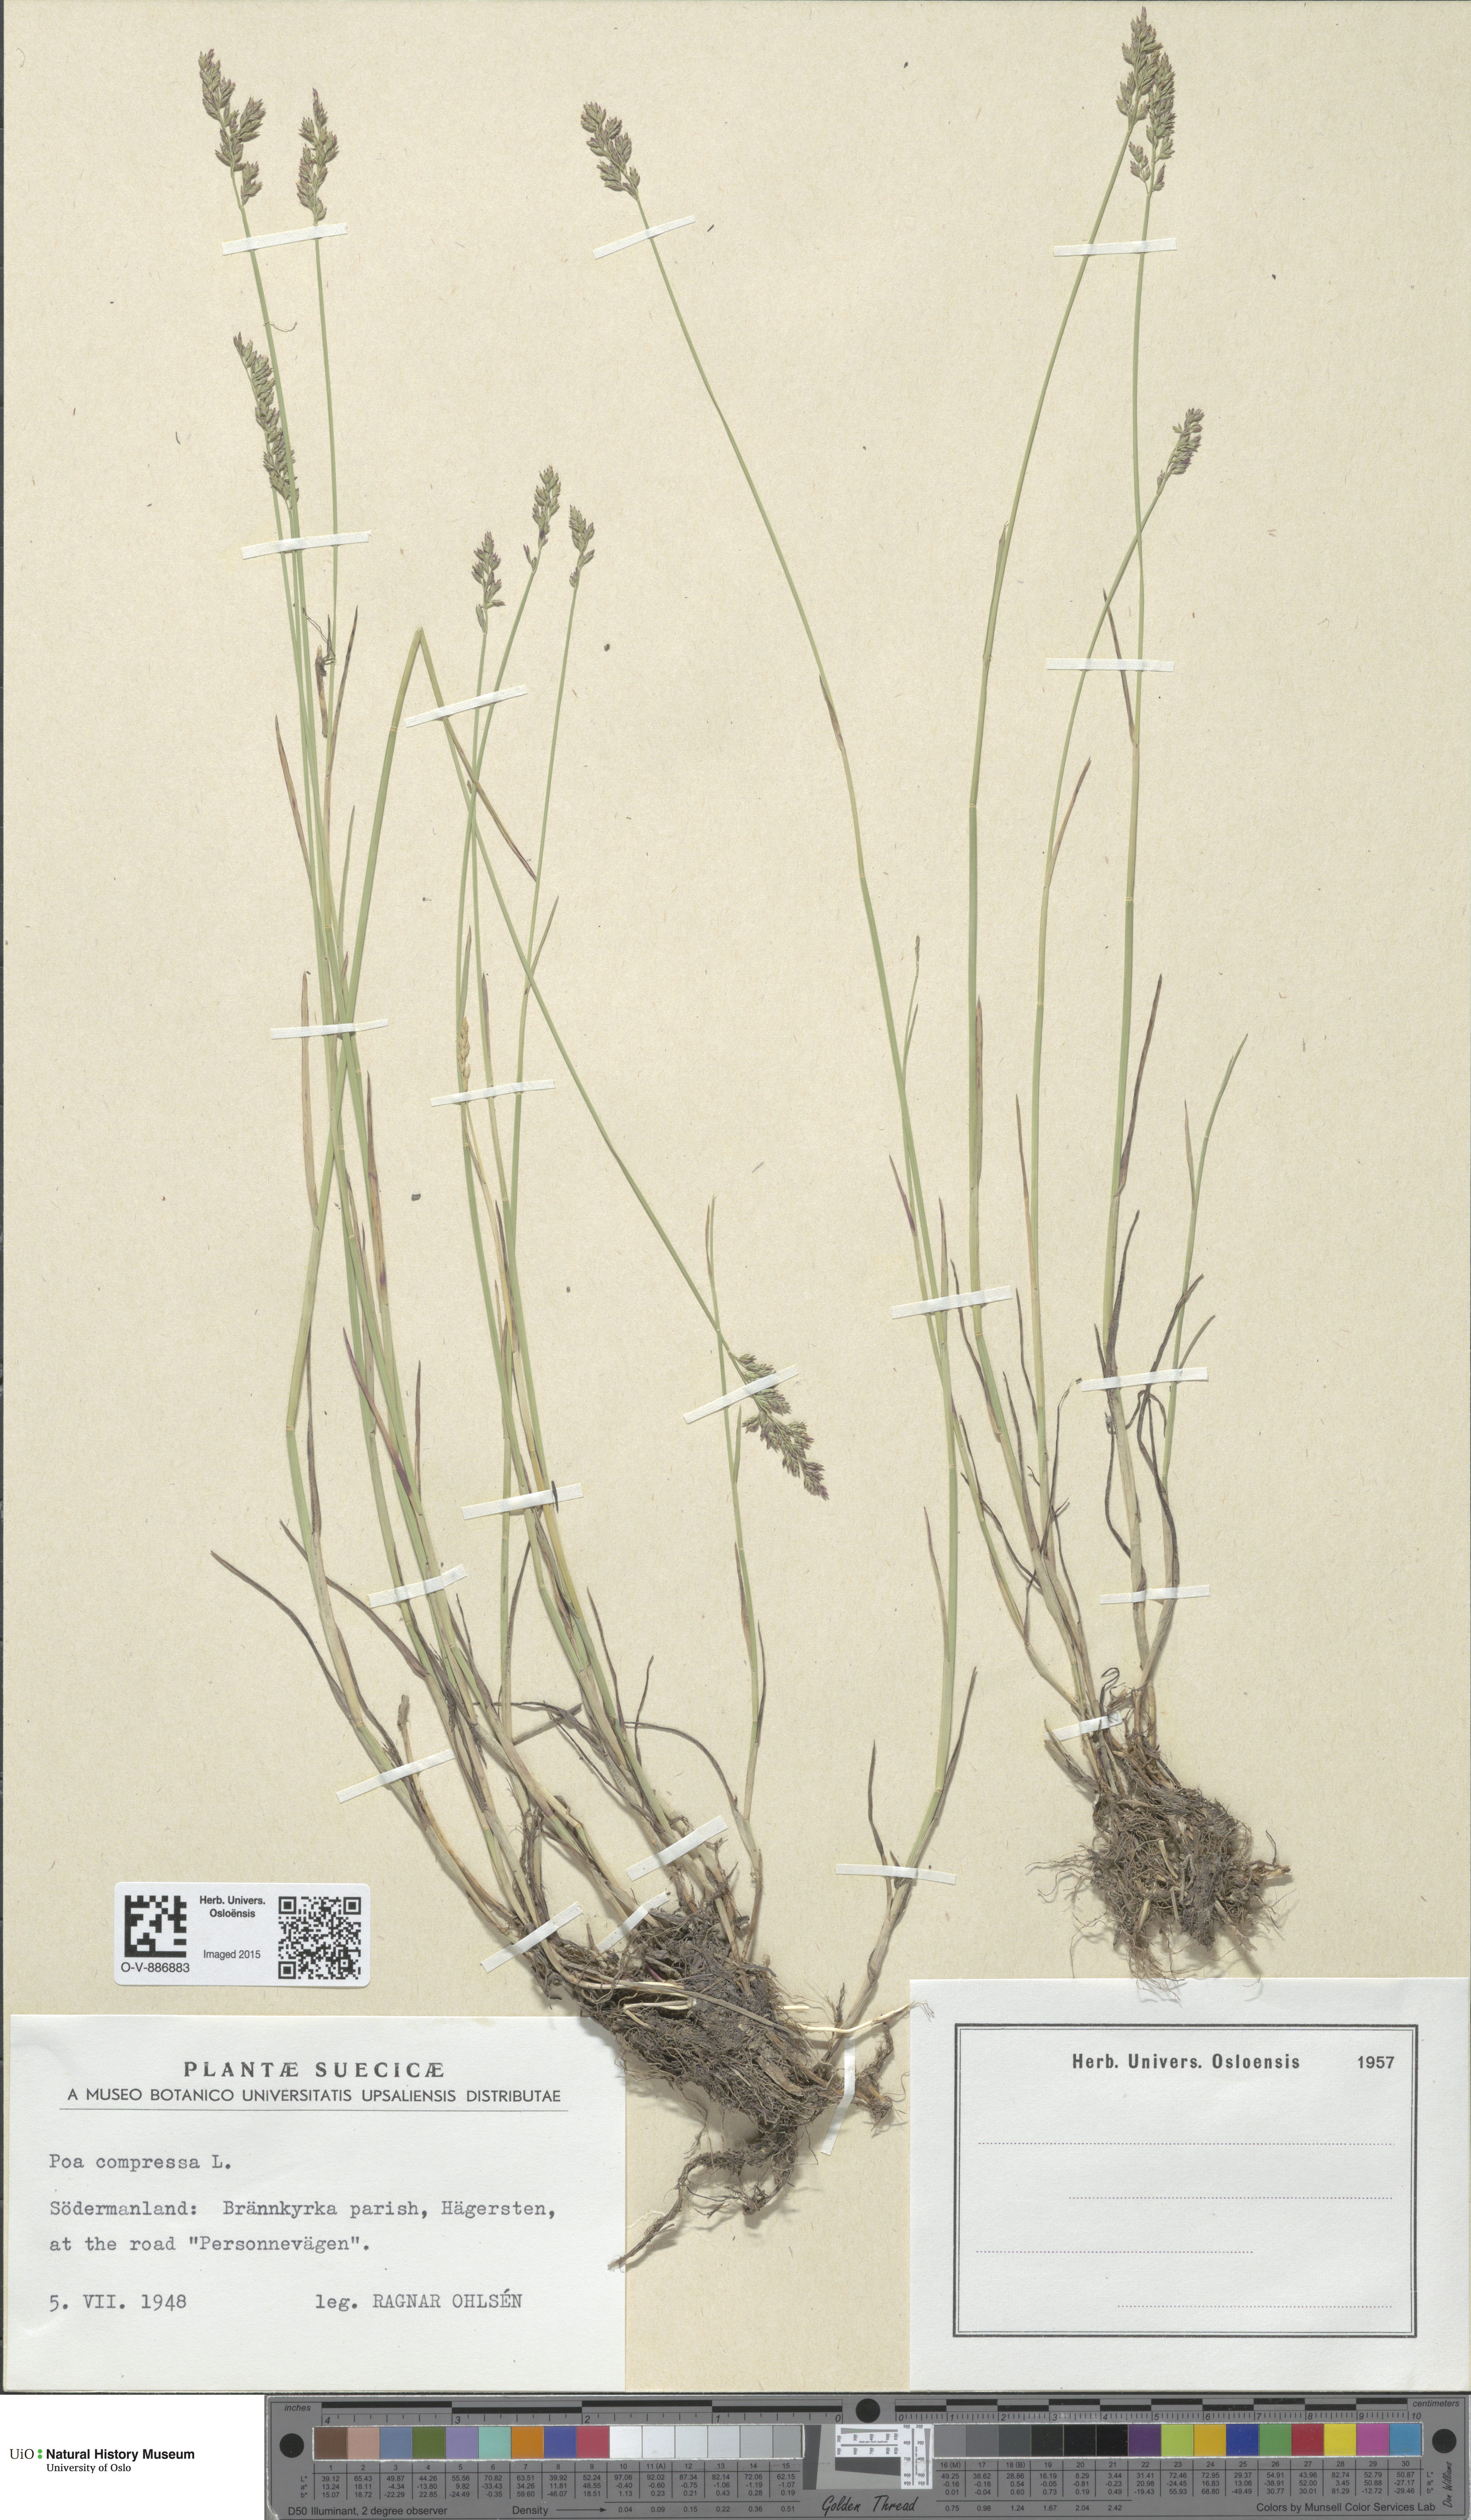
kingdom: Plantae
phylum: Tracheophyta
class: Liliopsida
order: Poales
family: Poaceae
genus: Poa
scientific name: Poa compressa
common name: Canada bluegrass
